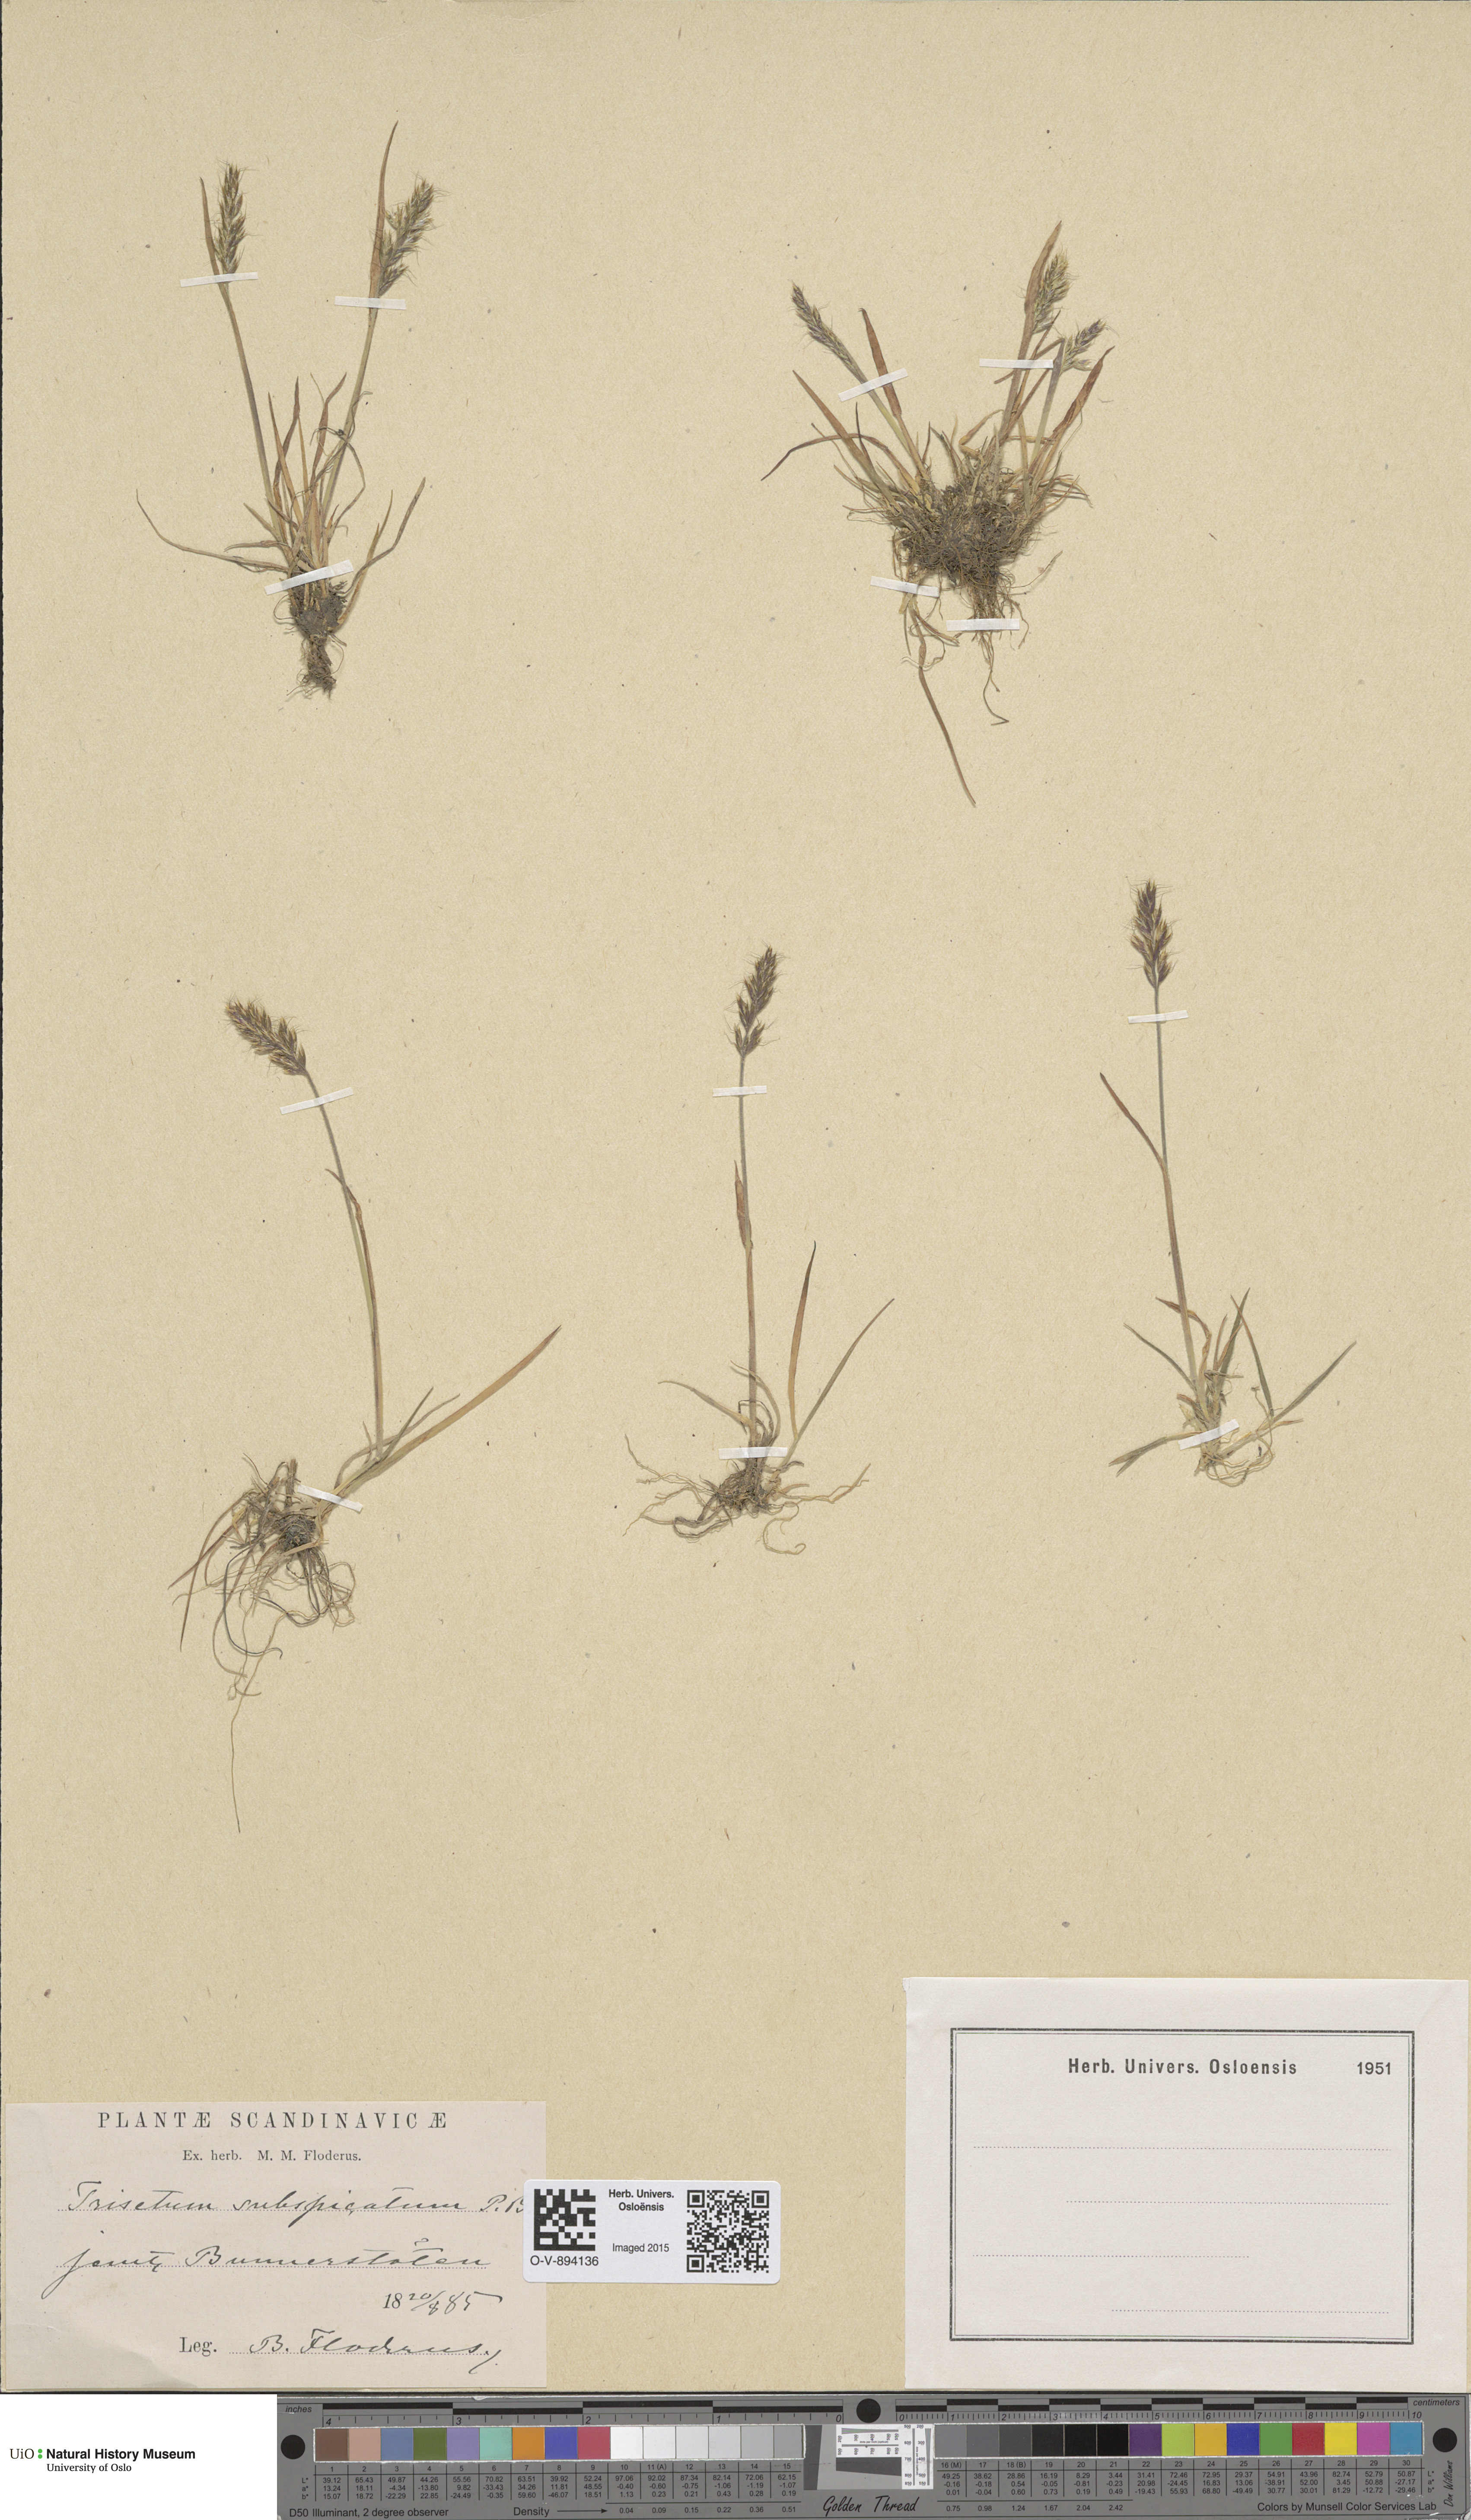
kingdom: Plantae
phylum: Tracheophyta
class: Liliopsida
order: Poales
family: Poaceae
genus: Koeleria
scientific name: Koeleria spicata
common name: Mountain trisetum
